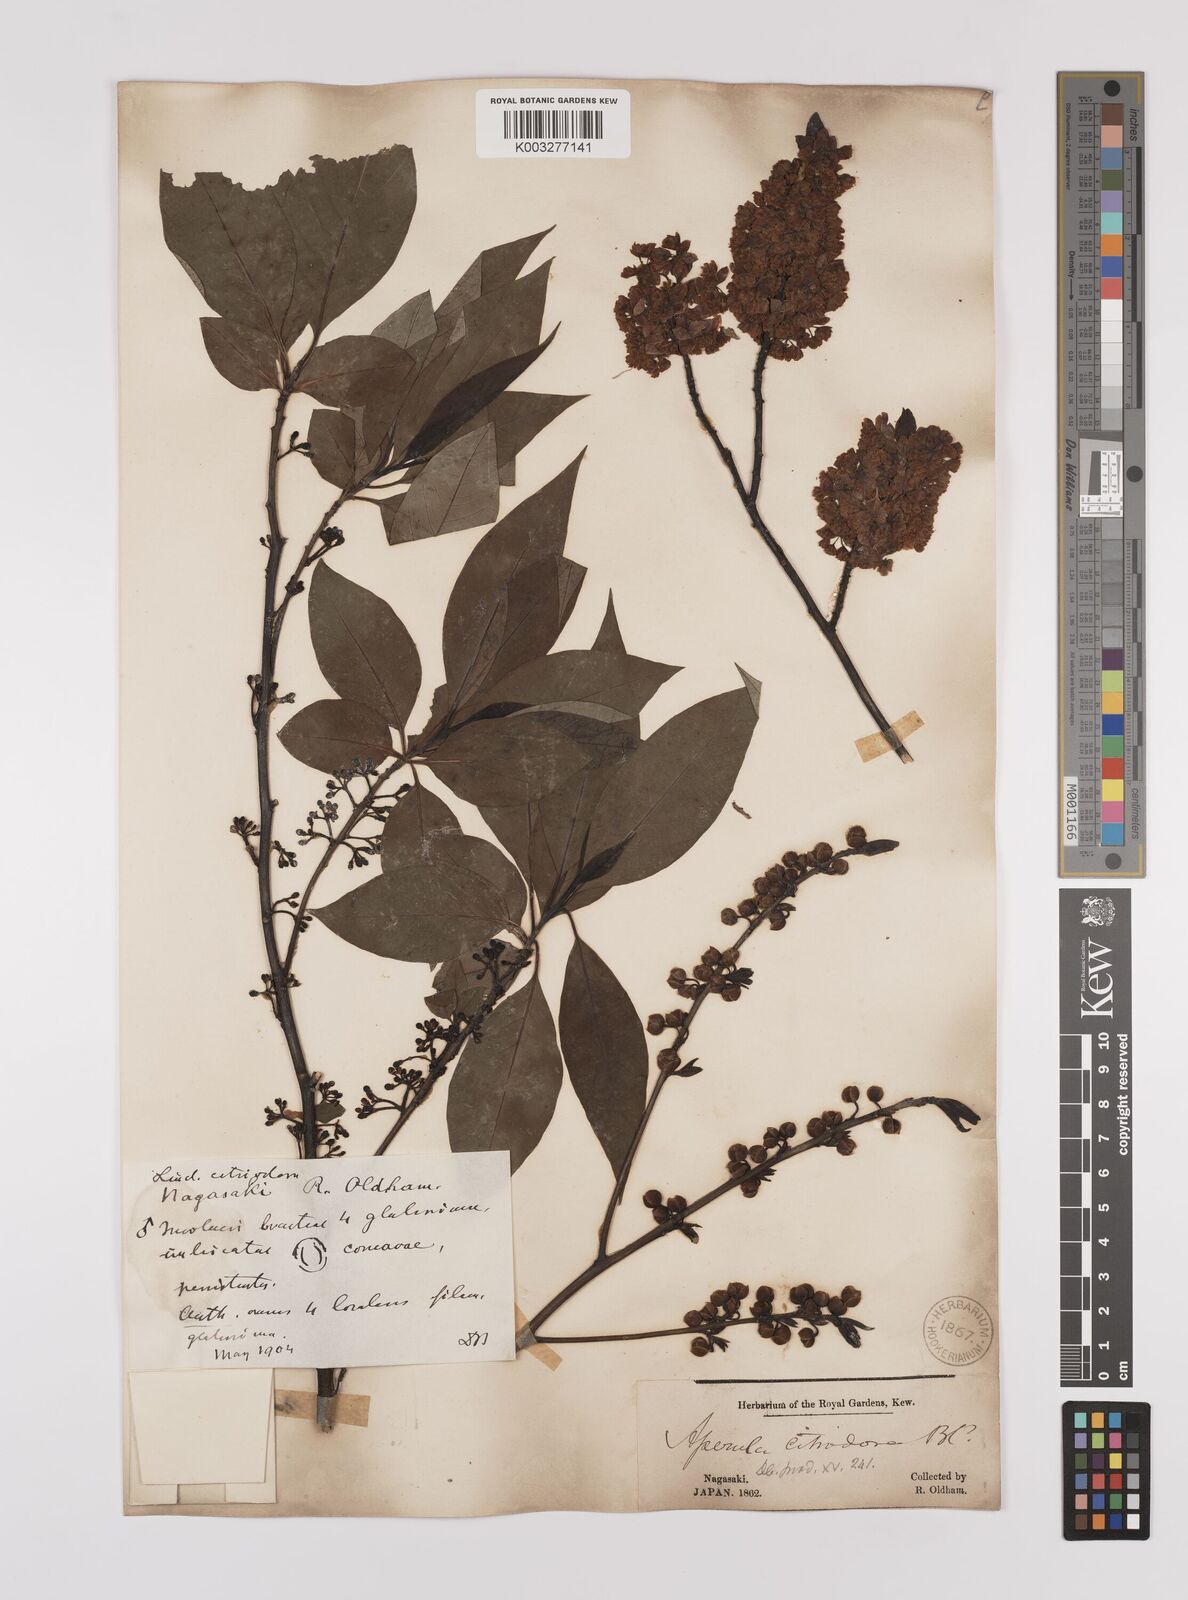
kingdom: Plantae
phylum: Tracheophyta
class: Magnoliopsida
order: Laurales
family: Lauraceae
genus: Litsea
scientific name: Litsea cubeba
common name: Mountain-pepper
